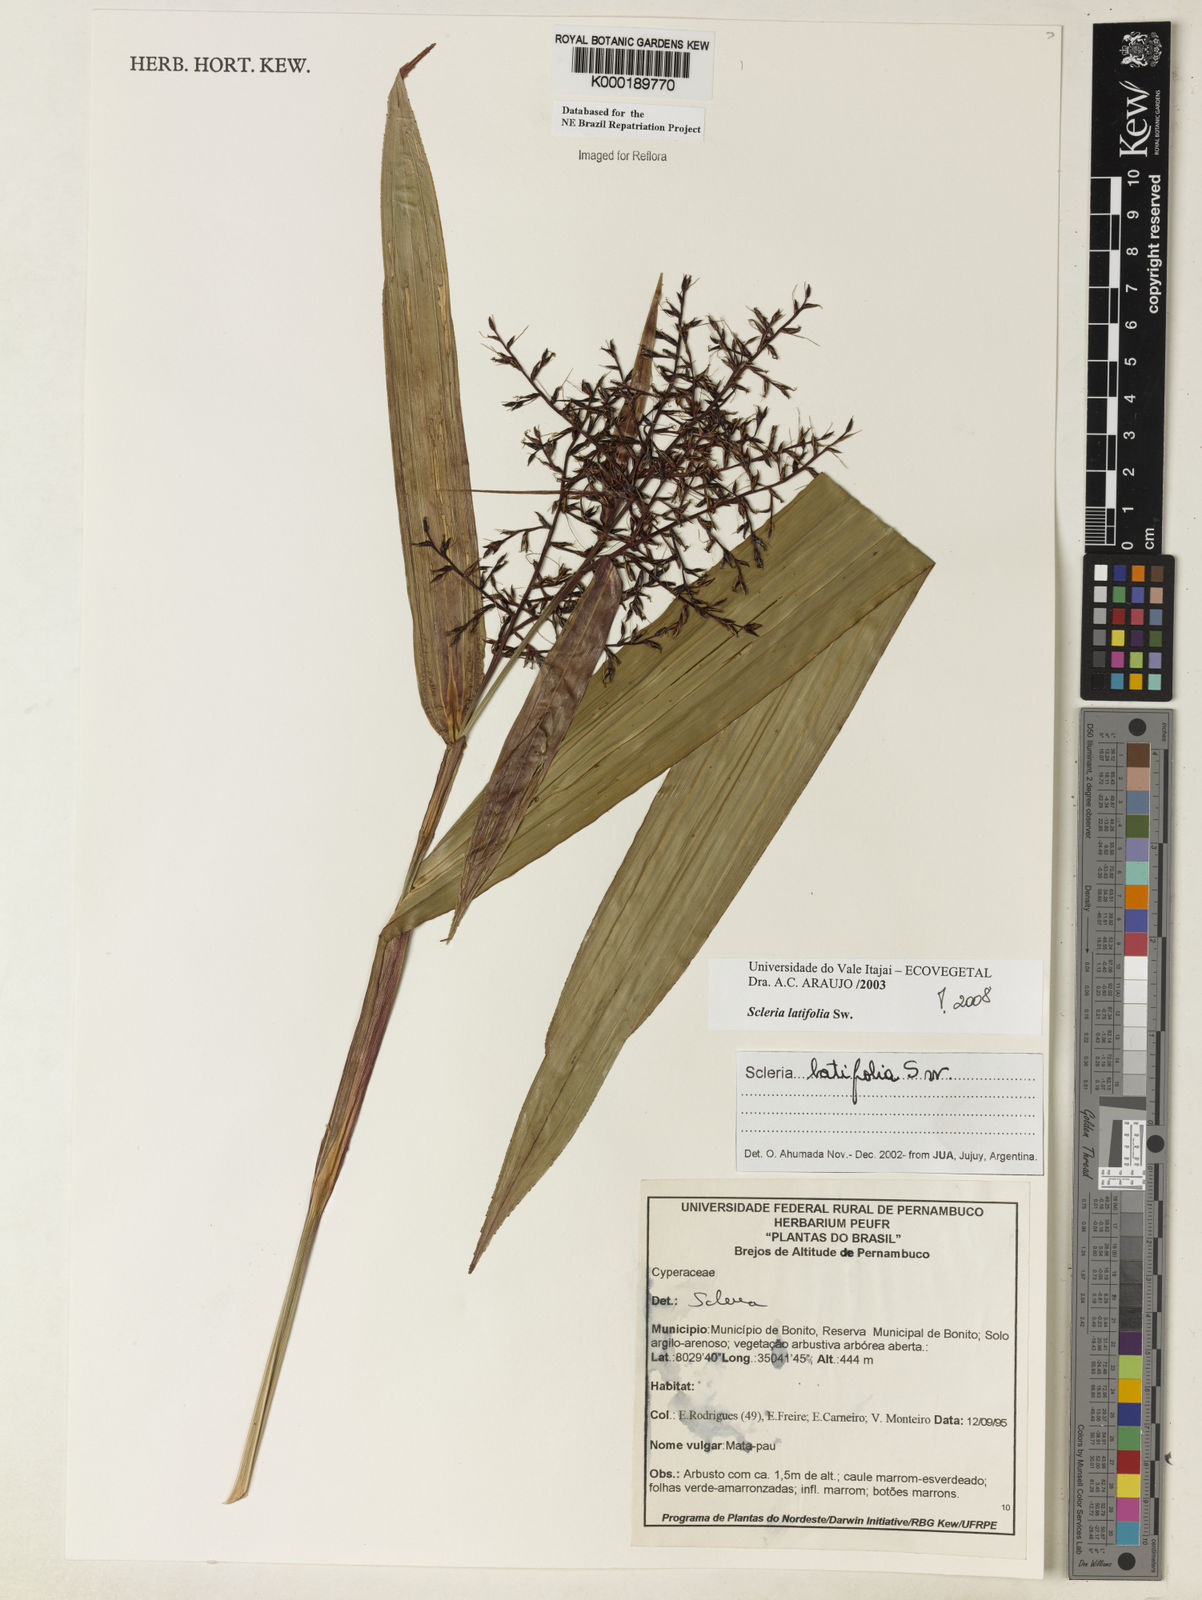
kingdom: Plantae
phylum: Tracheophyta
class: Liliopsida
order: Poales
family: Cyperaceae
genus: Scleria
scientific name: Scleria latifolia
